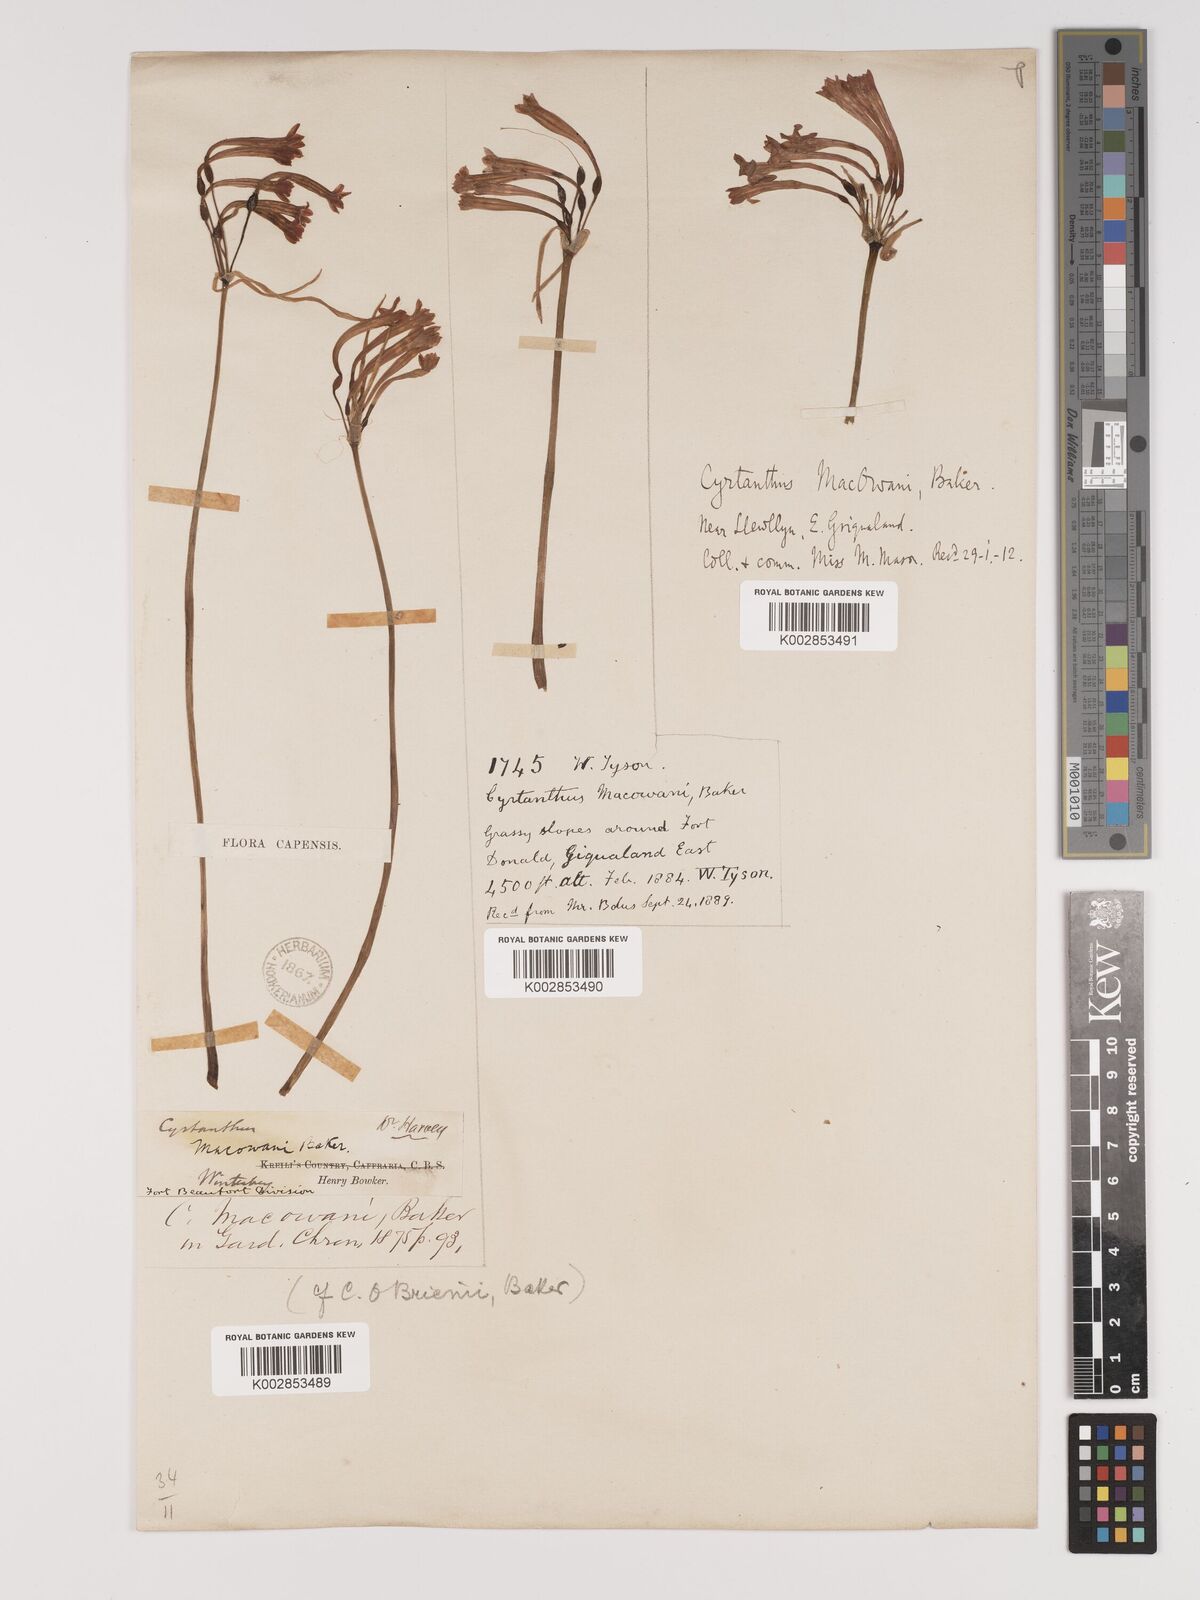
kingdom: Plantae
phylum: Tracheophyta
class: Liliopsida
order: Asparagales
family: Amaryllidaceae
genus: Cyrtanthus
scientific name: Cyrtanthus macowanii
